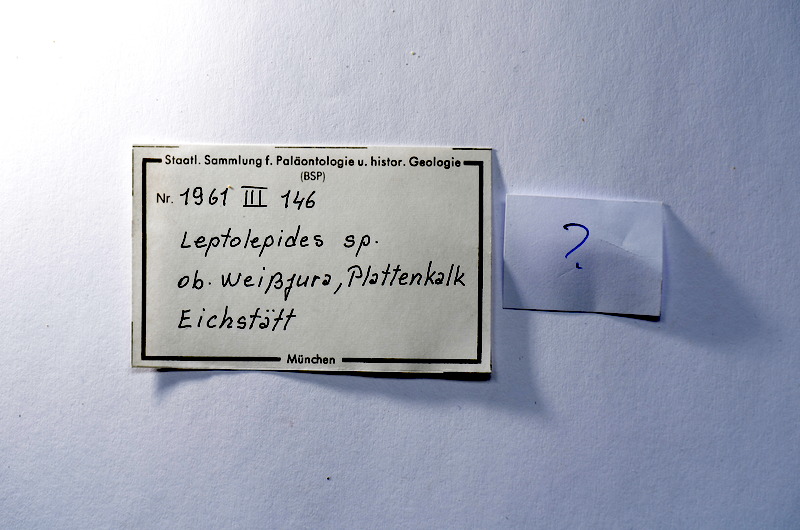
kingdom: Animalia
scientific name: Animalia
